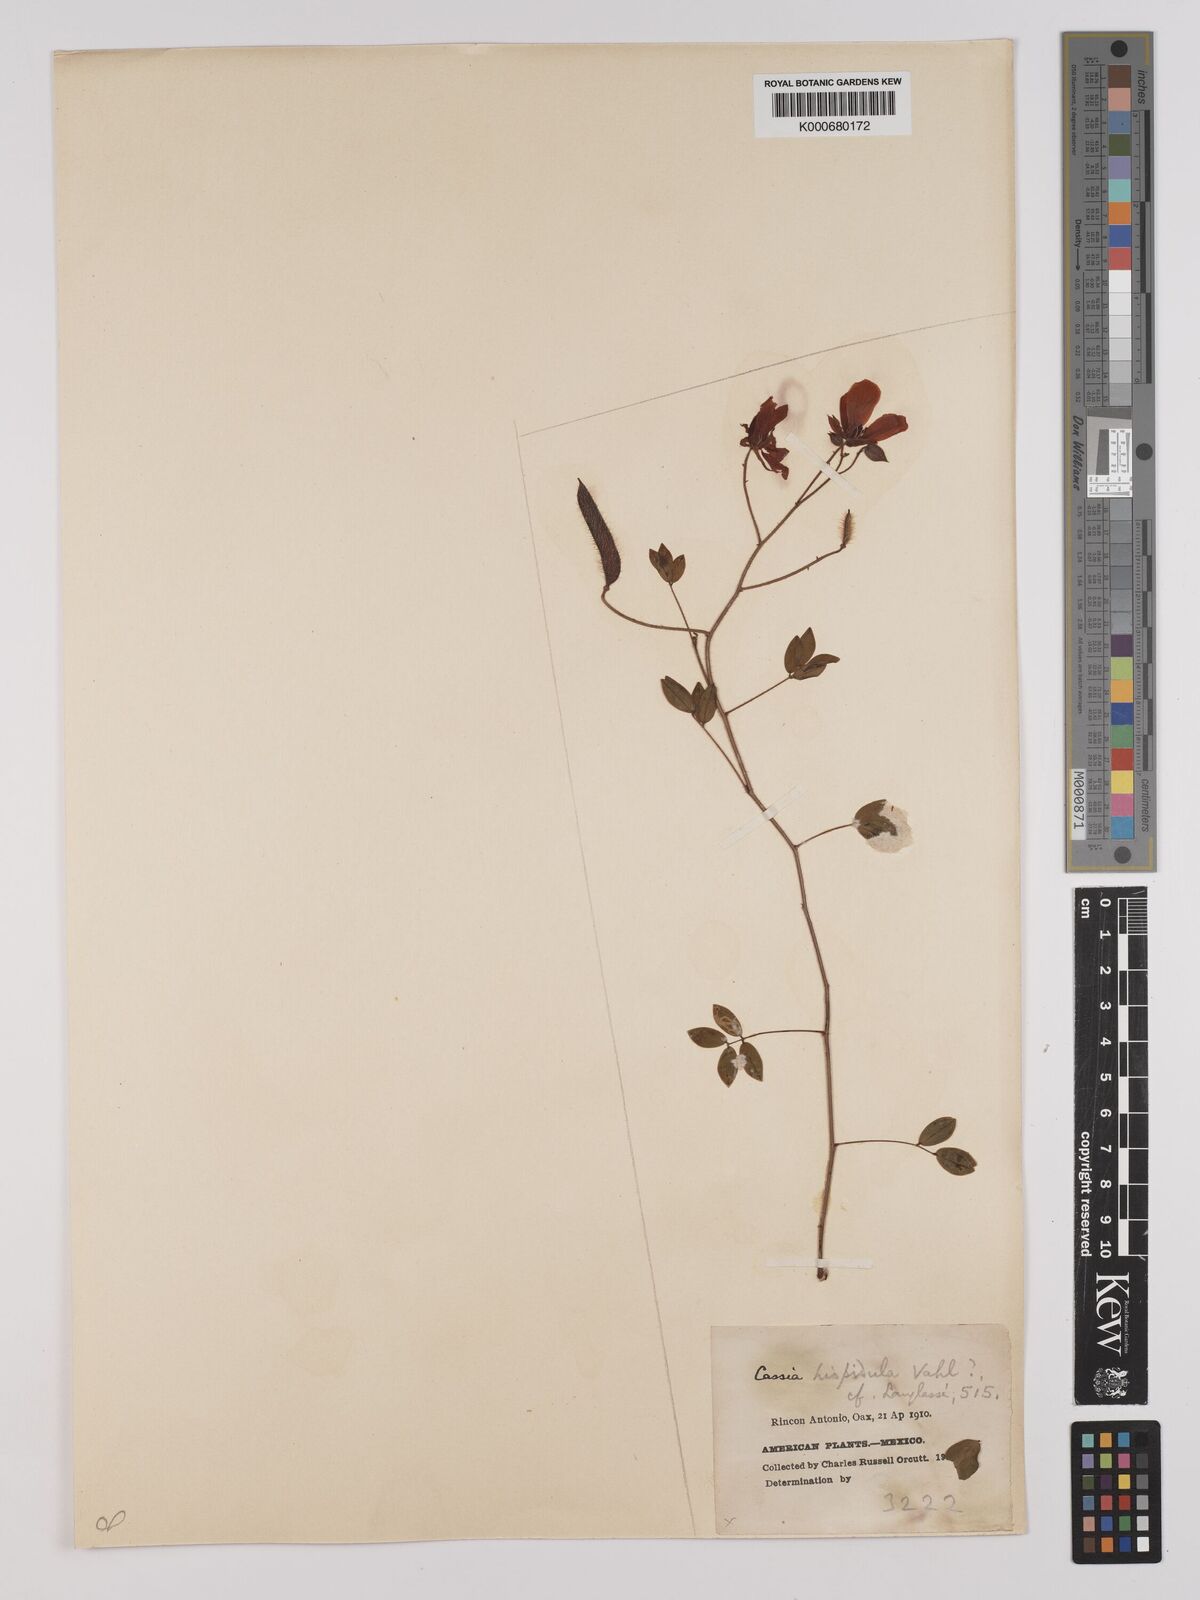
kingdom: Plantae
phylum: Tracheophyta
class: Magnoliopsida
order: Fabales
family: Fabaceae
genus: Chamaecrista
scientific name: Chamaecrista hispidula
